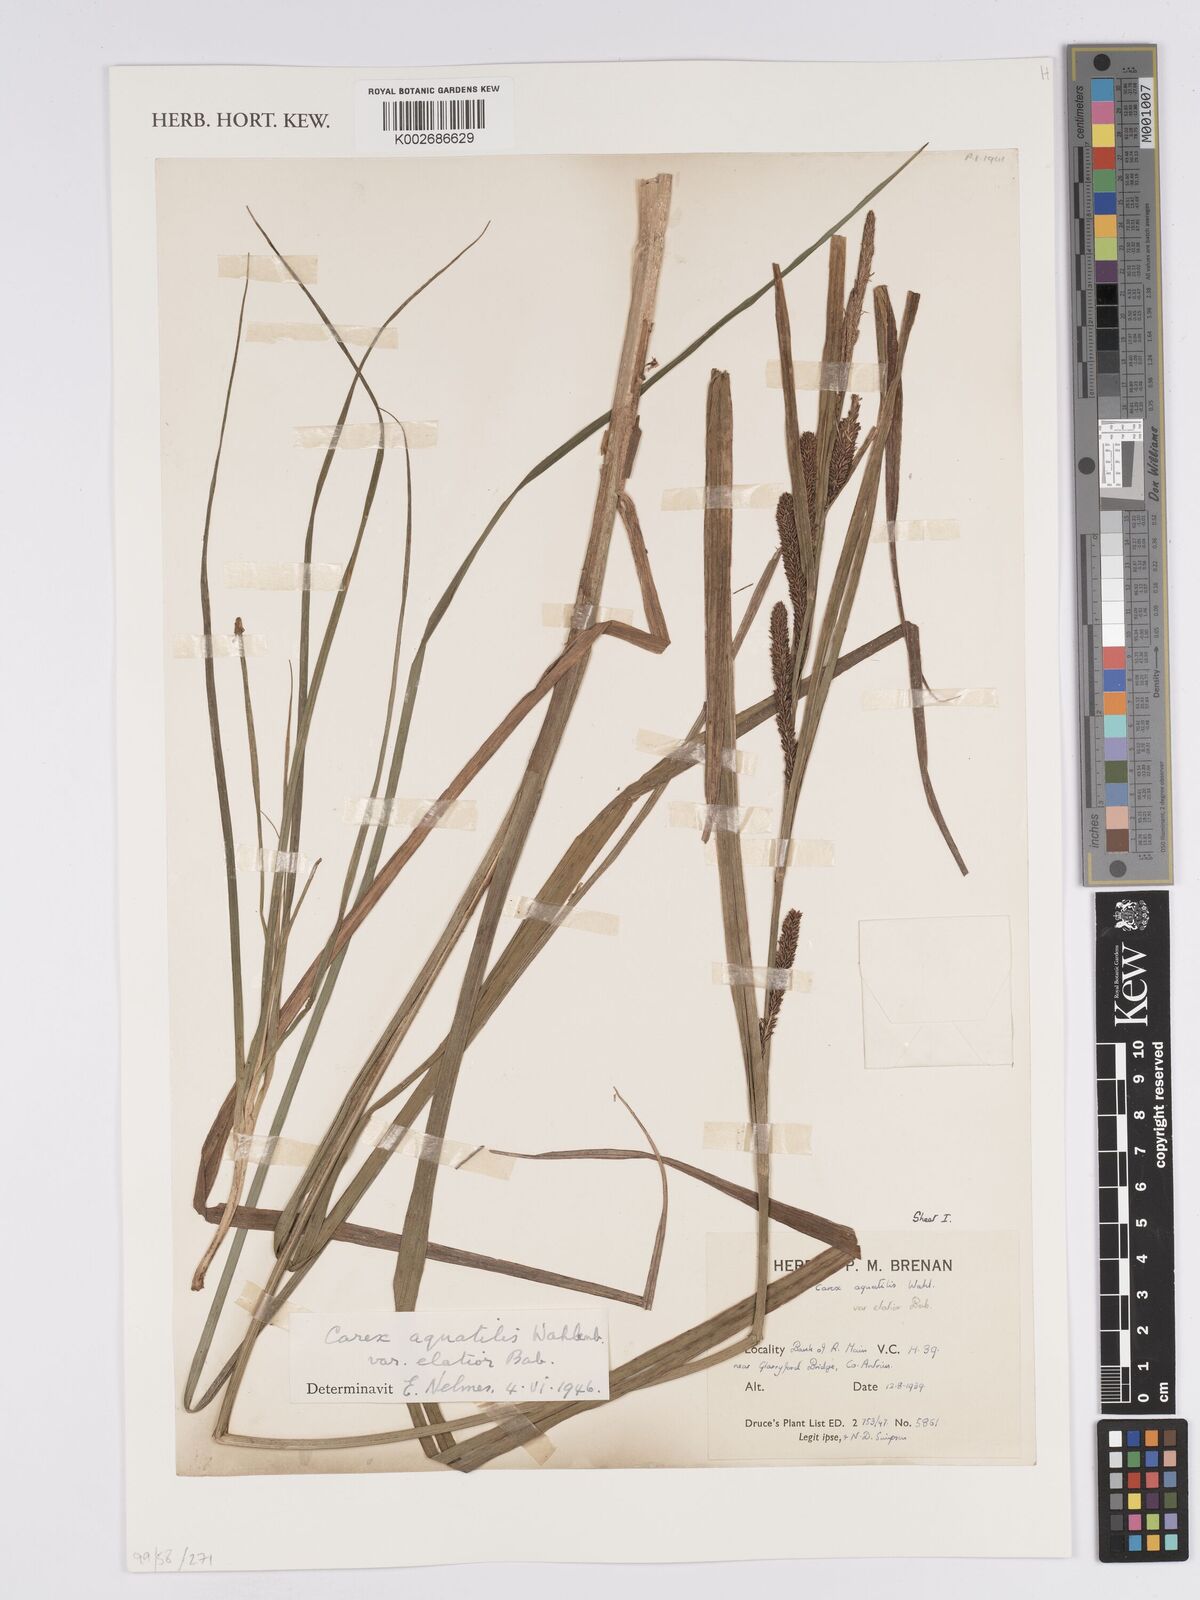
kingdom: Plantae
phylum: Tracheophyta
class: Liliopsida
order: Poales
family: Cyperaceae
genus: Carex
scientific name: Carex aquatilis
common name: Water sedge
